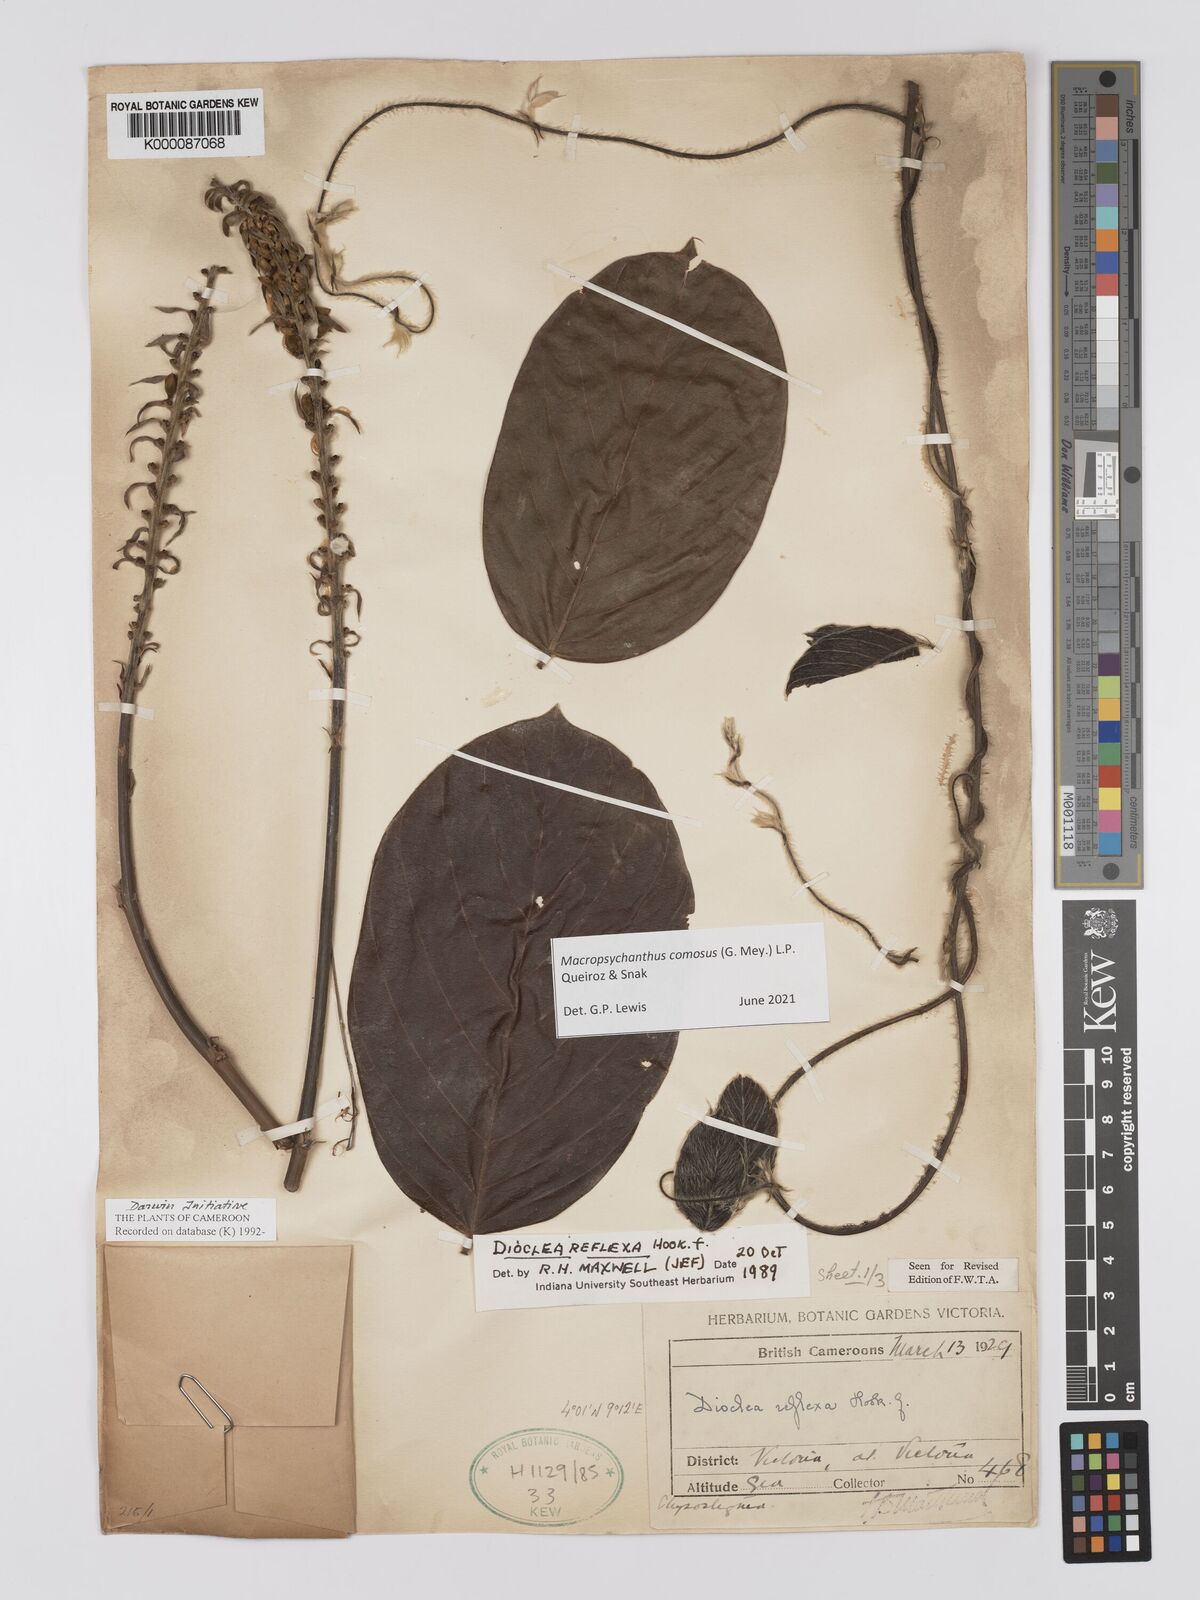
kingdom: Plantae
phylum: Tracheophyta
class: Magnoliopsida
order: Fabales
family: Fabaceae
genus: Macropsychanthus
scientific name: Macropsychanthus comosus
